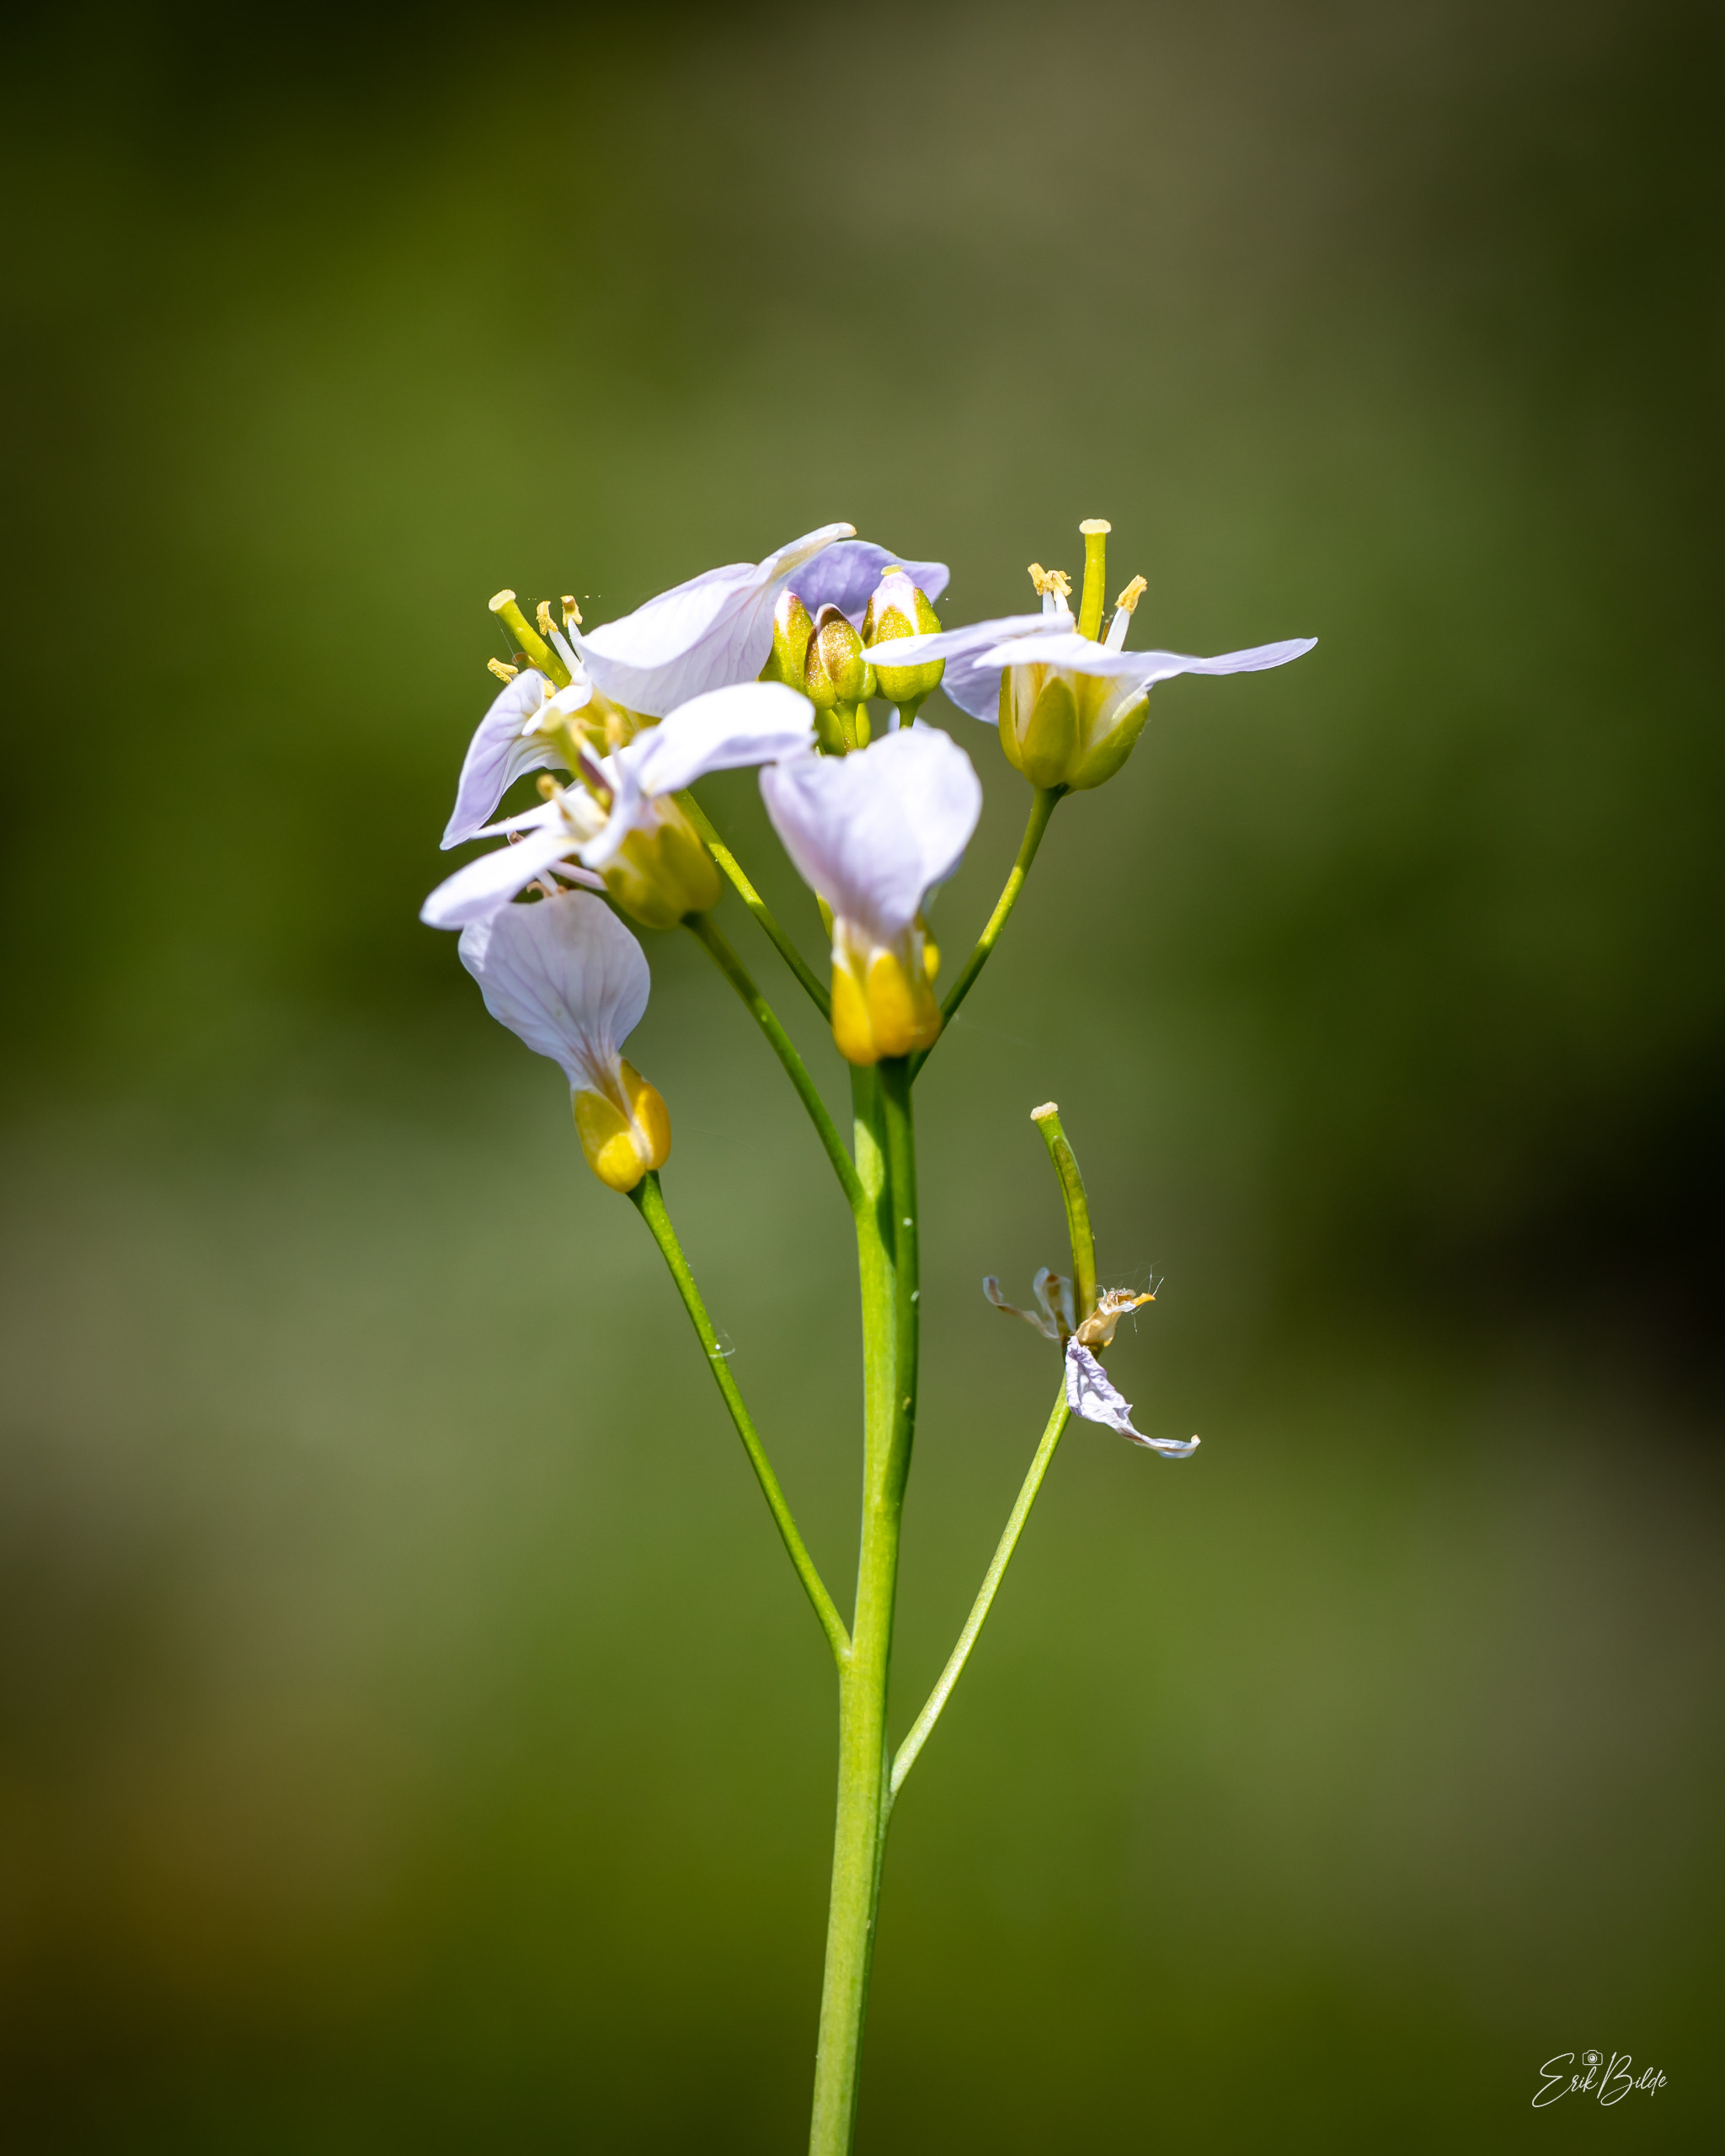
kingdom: Plantae
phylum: Tracheophyta
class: Magnoliopsida
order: Brassicales
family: Brassicaceae
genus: Cardamine
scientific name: Cardamine pratensis
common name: Engkarse
